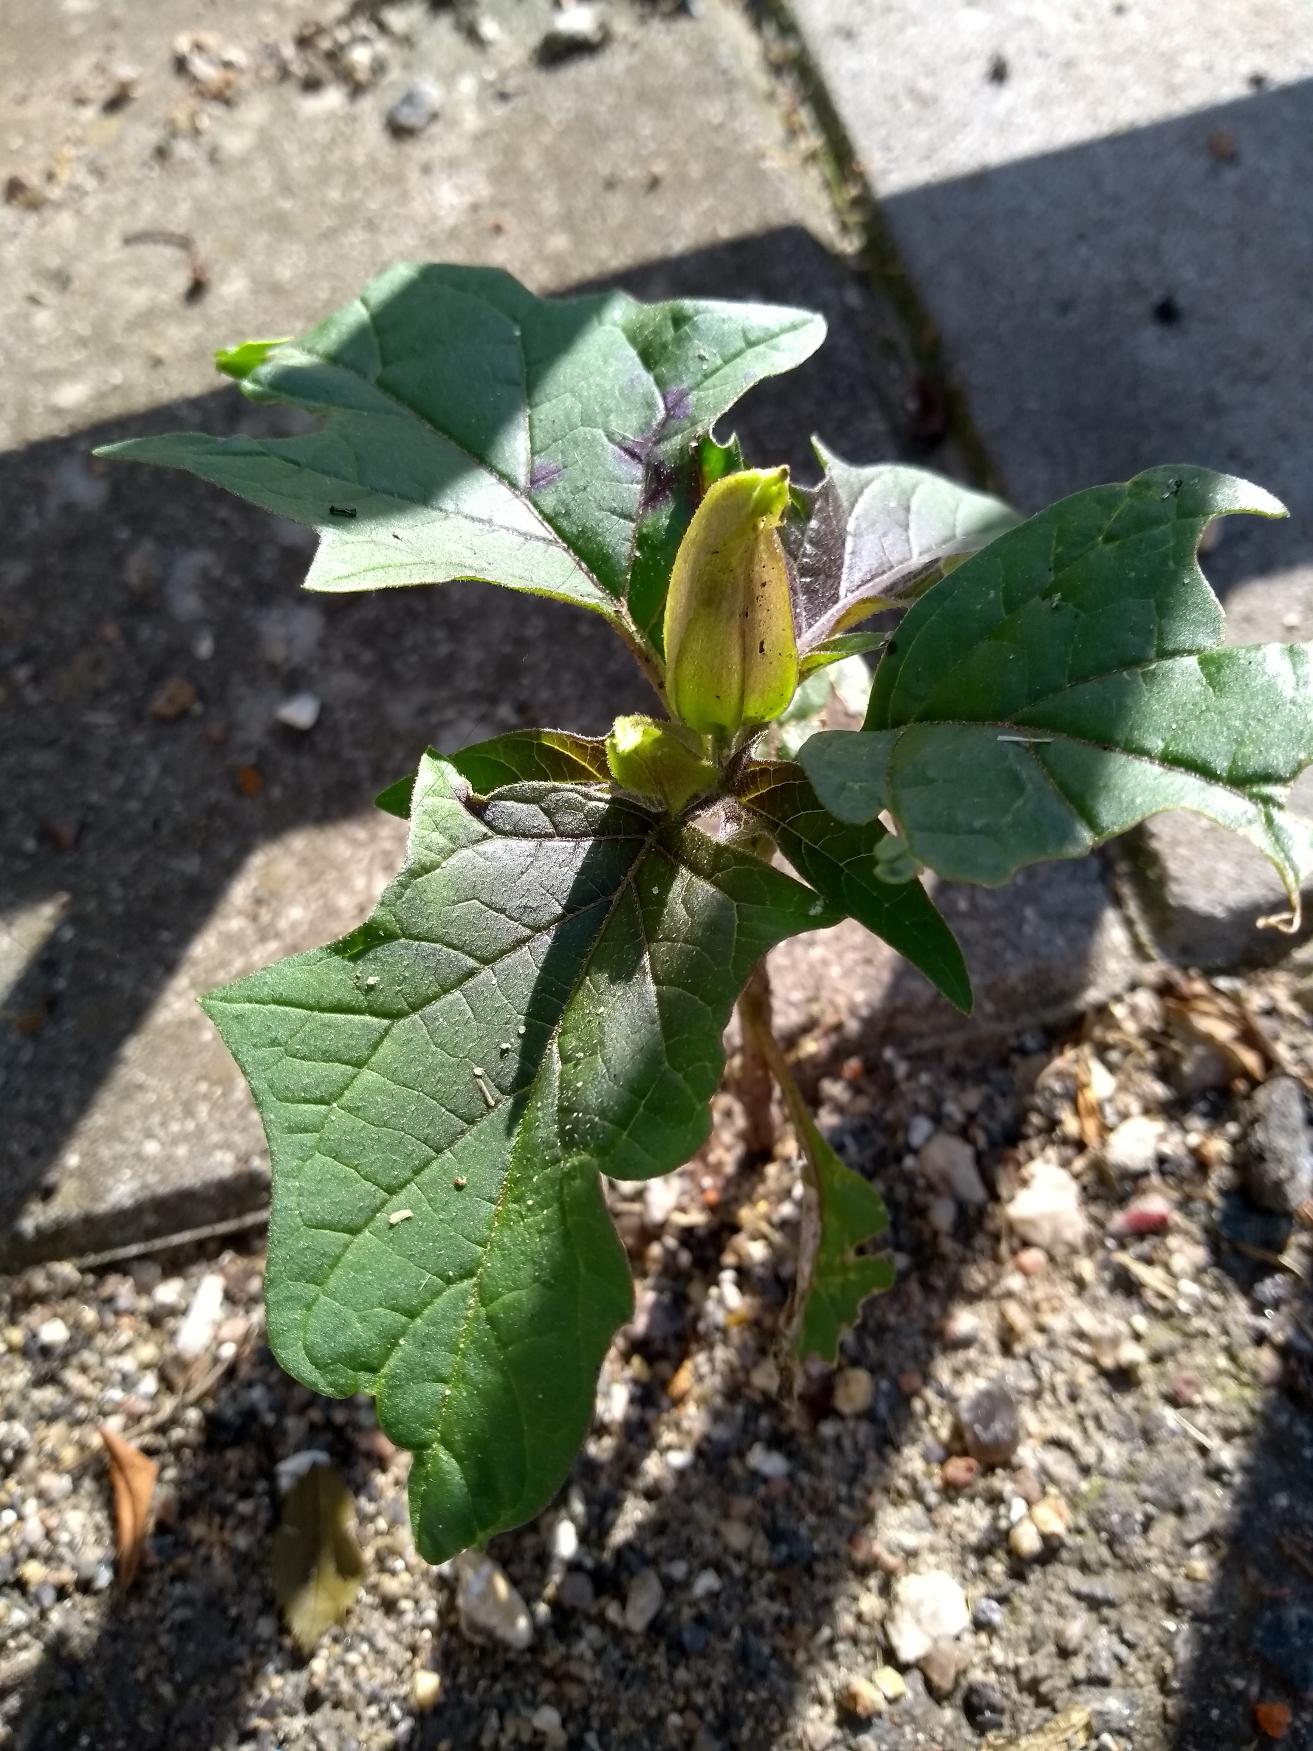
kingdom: Plantae
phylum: Tracheophyta
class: Magnoliopsida
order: Solanales
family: Solanaceae
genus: Datura
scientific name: Datura stramonium
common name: Pigæble
